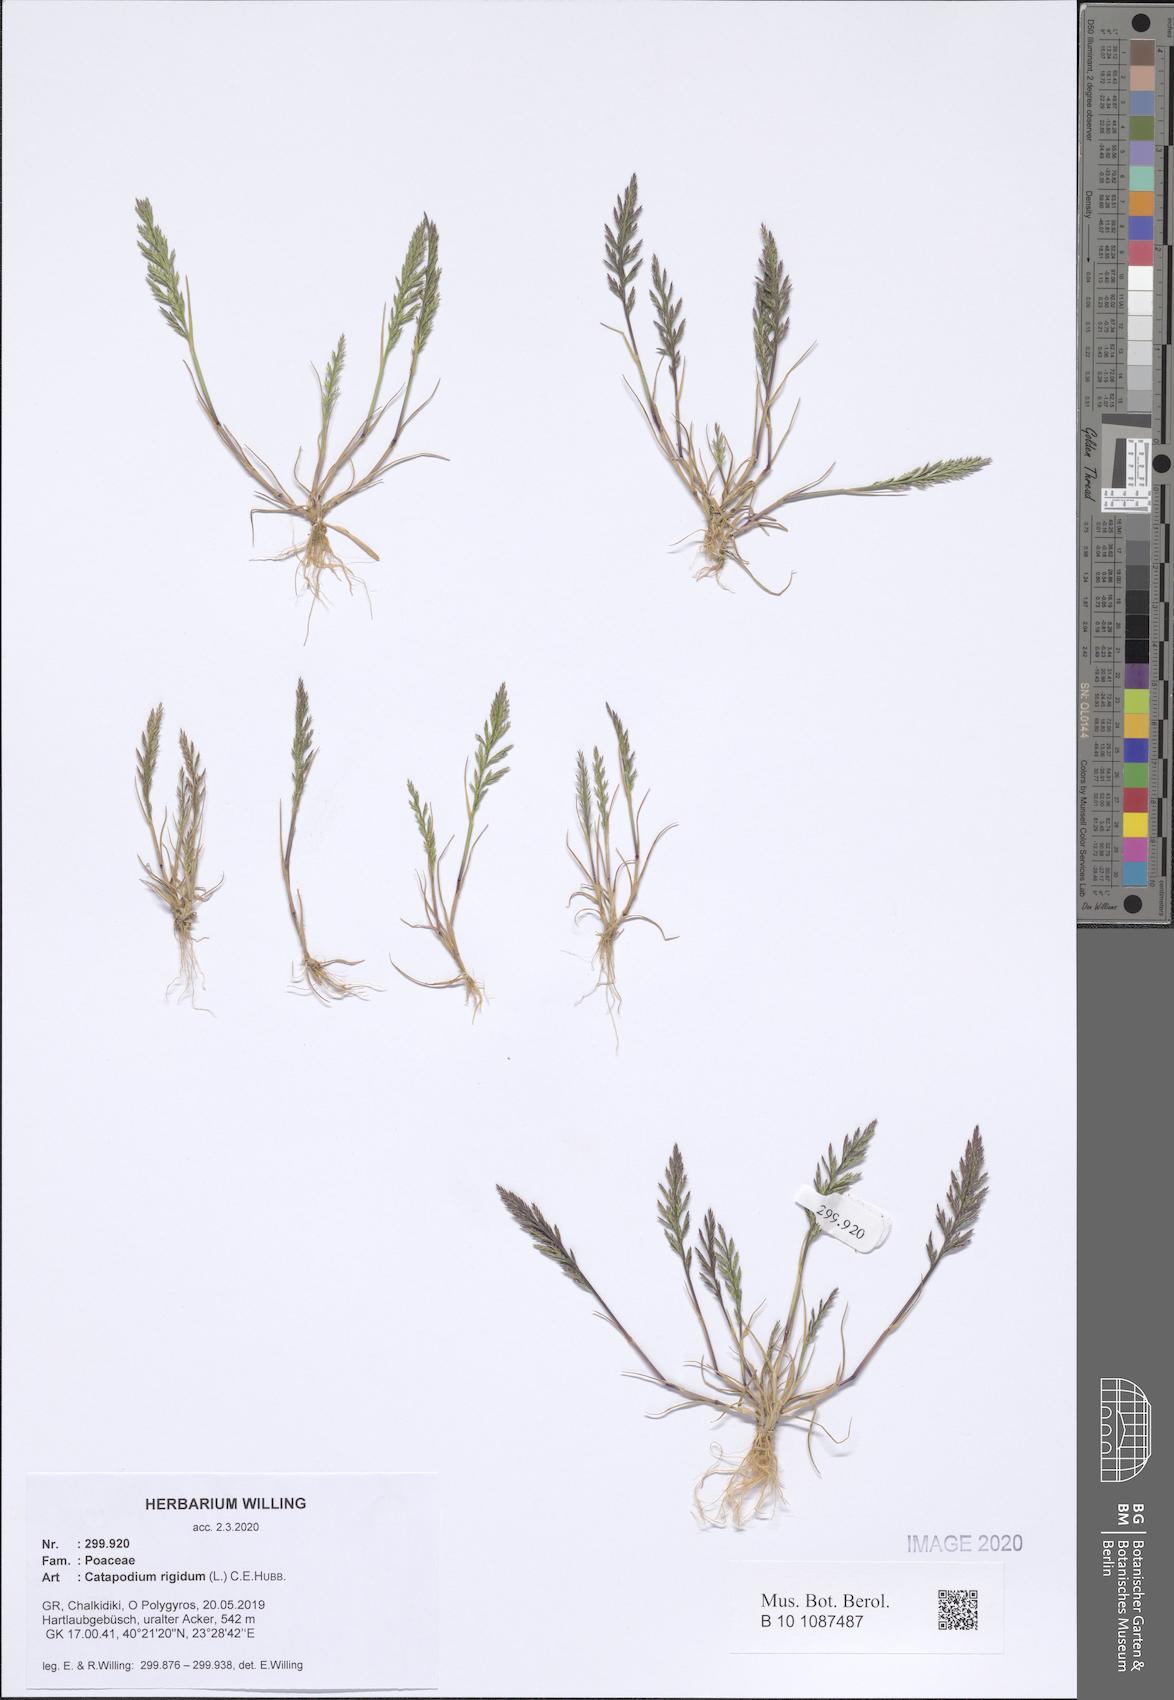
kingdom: Plantae
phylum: Tracheophyta
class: Liliopsida
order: Poales
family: Poaceae
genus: Catapodium
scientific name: Catapodium rigidum
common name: Fern-grass
